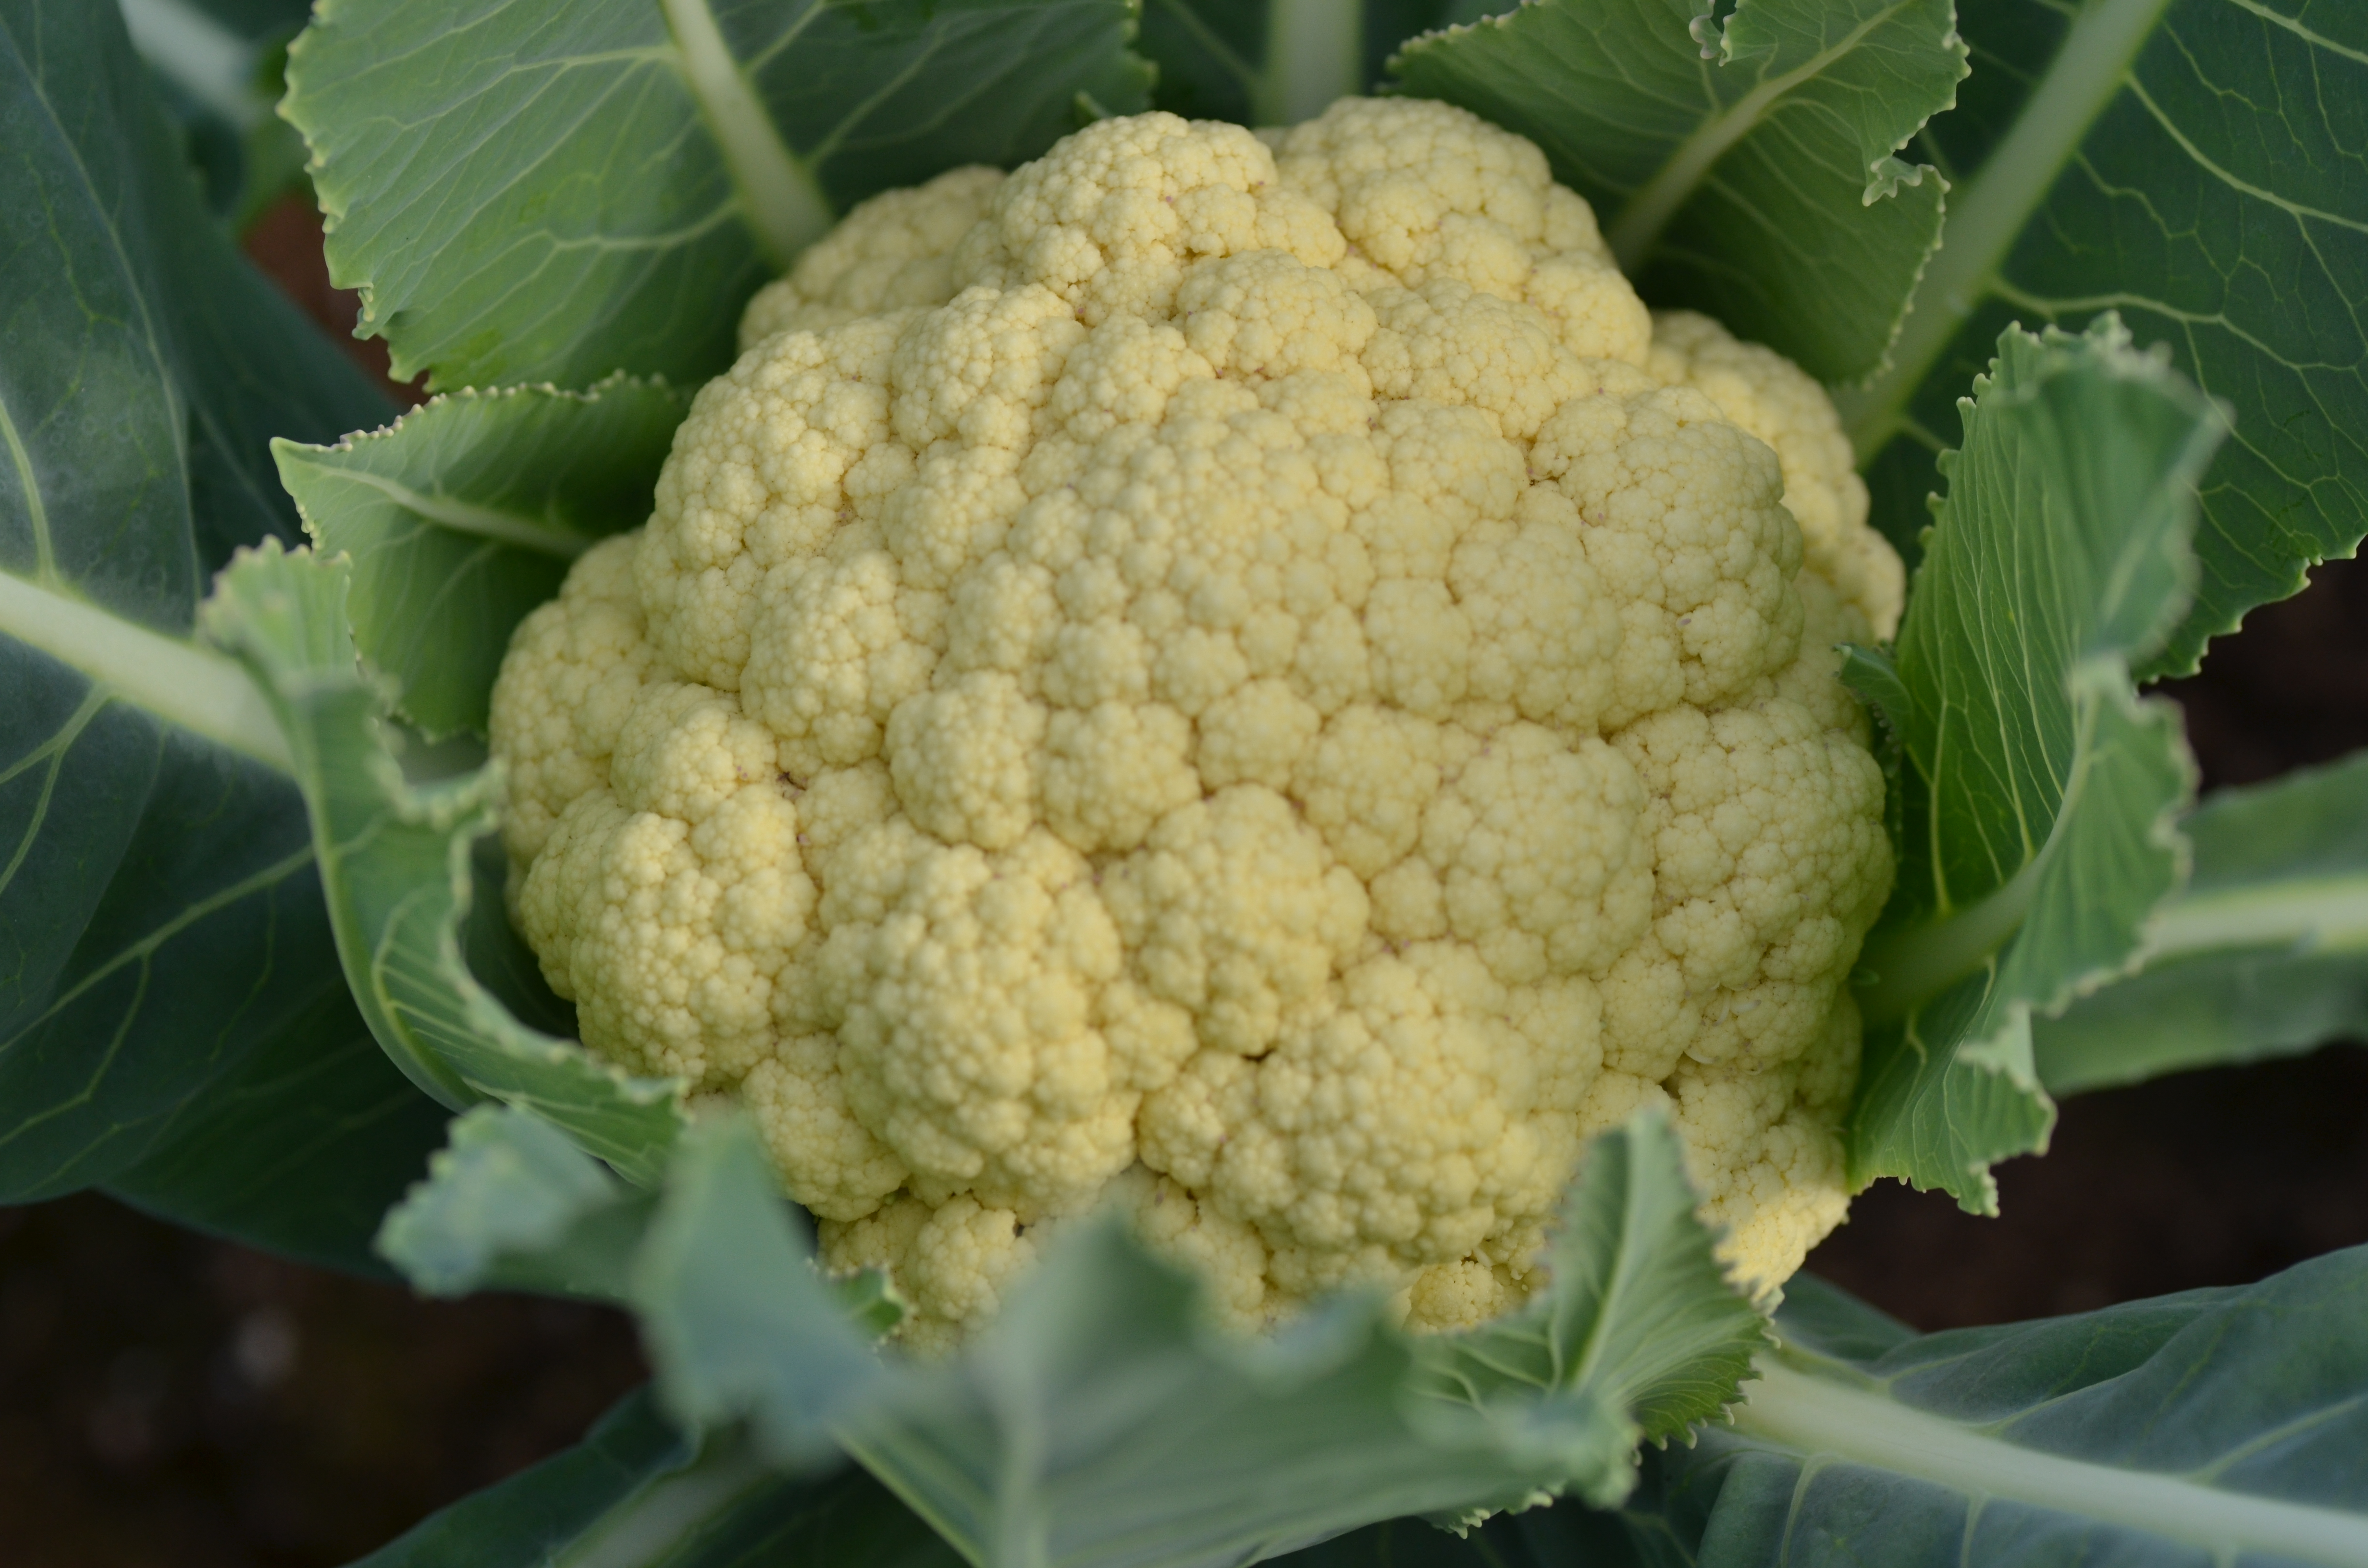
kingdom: Plantae
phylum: Tracheophyta
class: Magnoliopsida
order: Brassicales
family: Brassicaceae
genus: Brassica
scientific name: Brassica oleracea
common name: Cabbage
